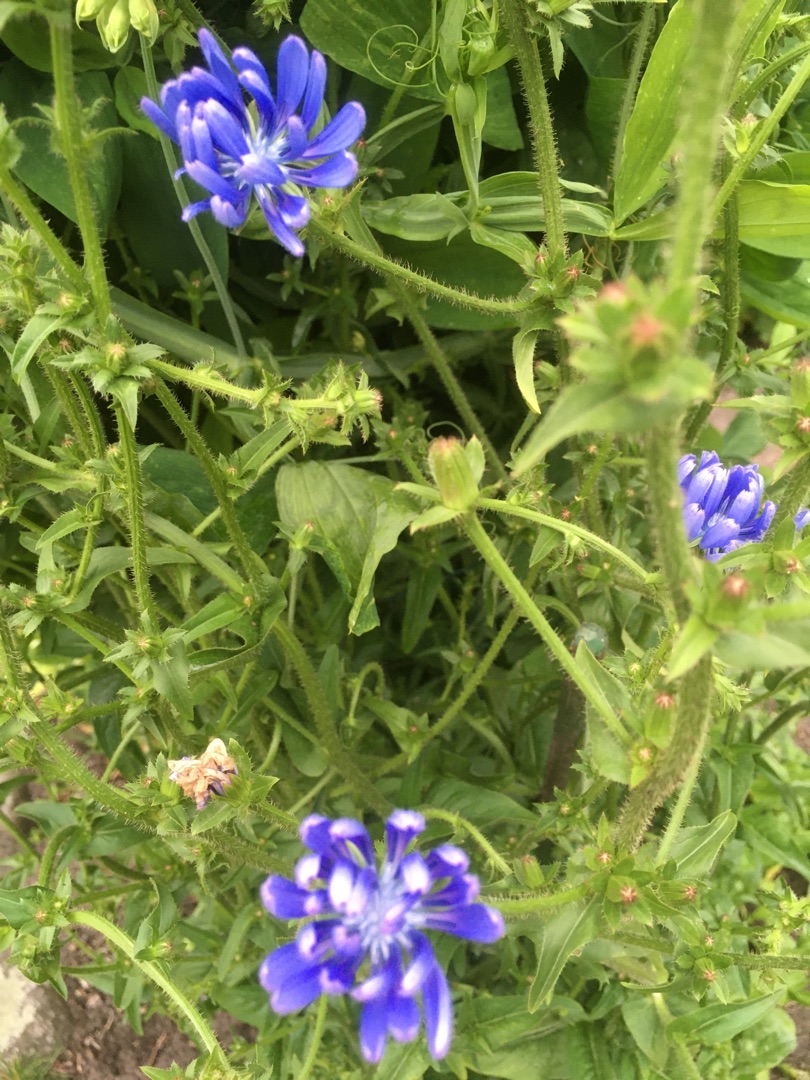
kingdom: Plantae
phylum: Tracheophyta
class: Magnoliopsida
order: Asterales
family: Asteraceae
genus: Cichorium
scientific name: Cichorium intybus
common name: Cikorie
